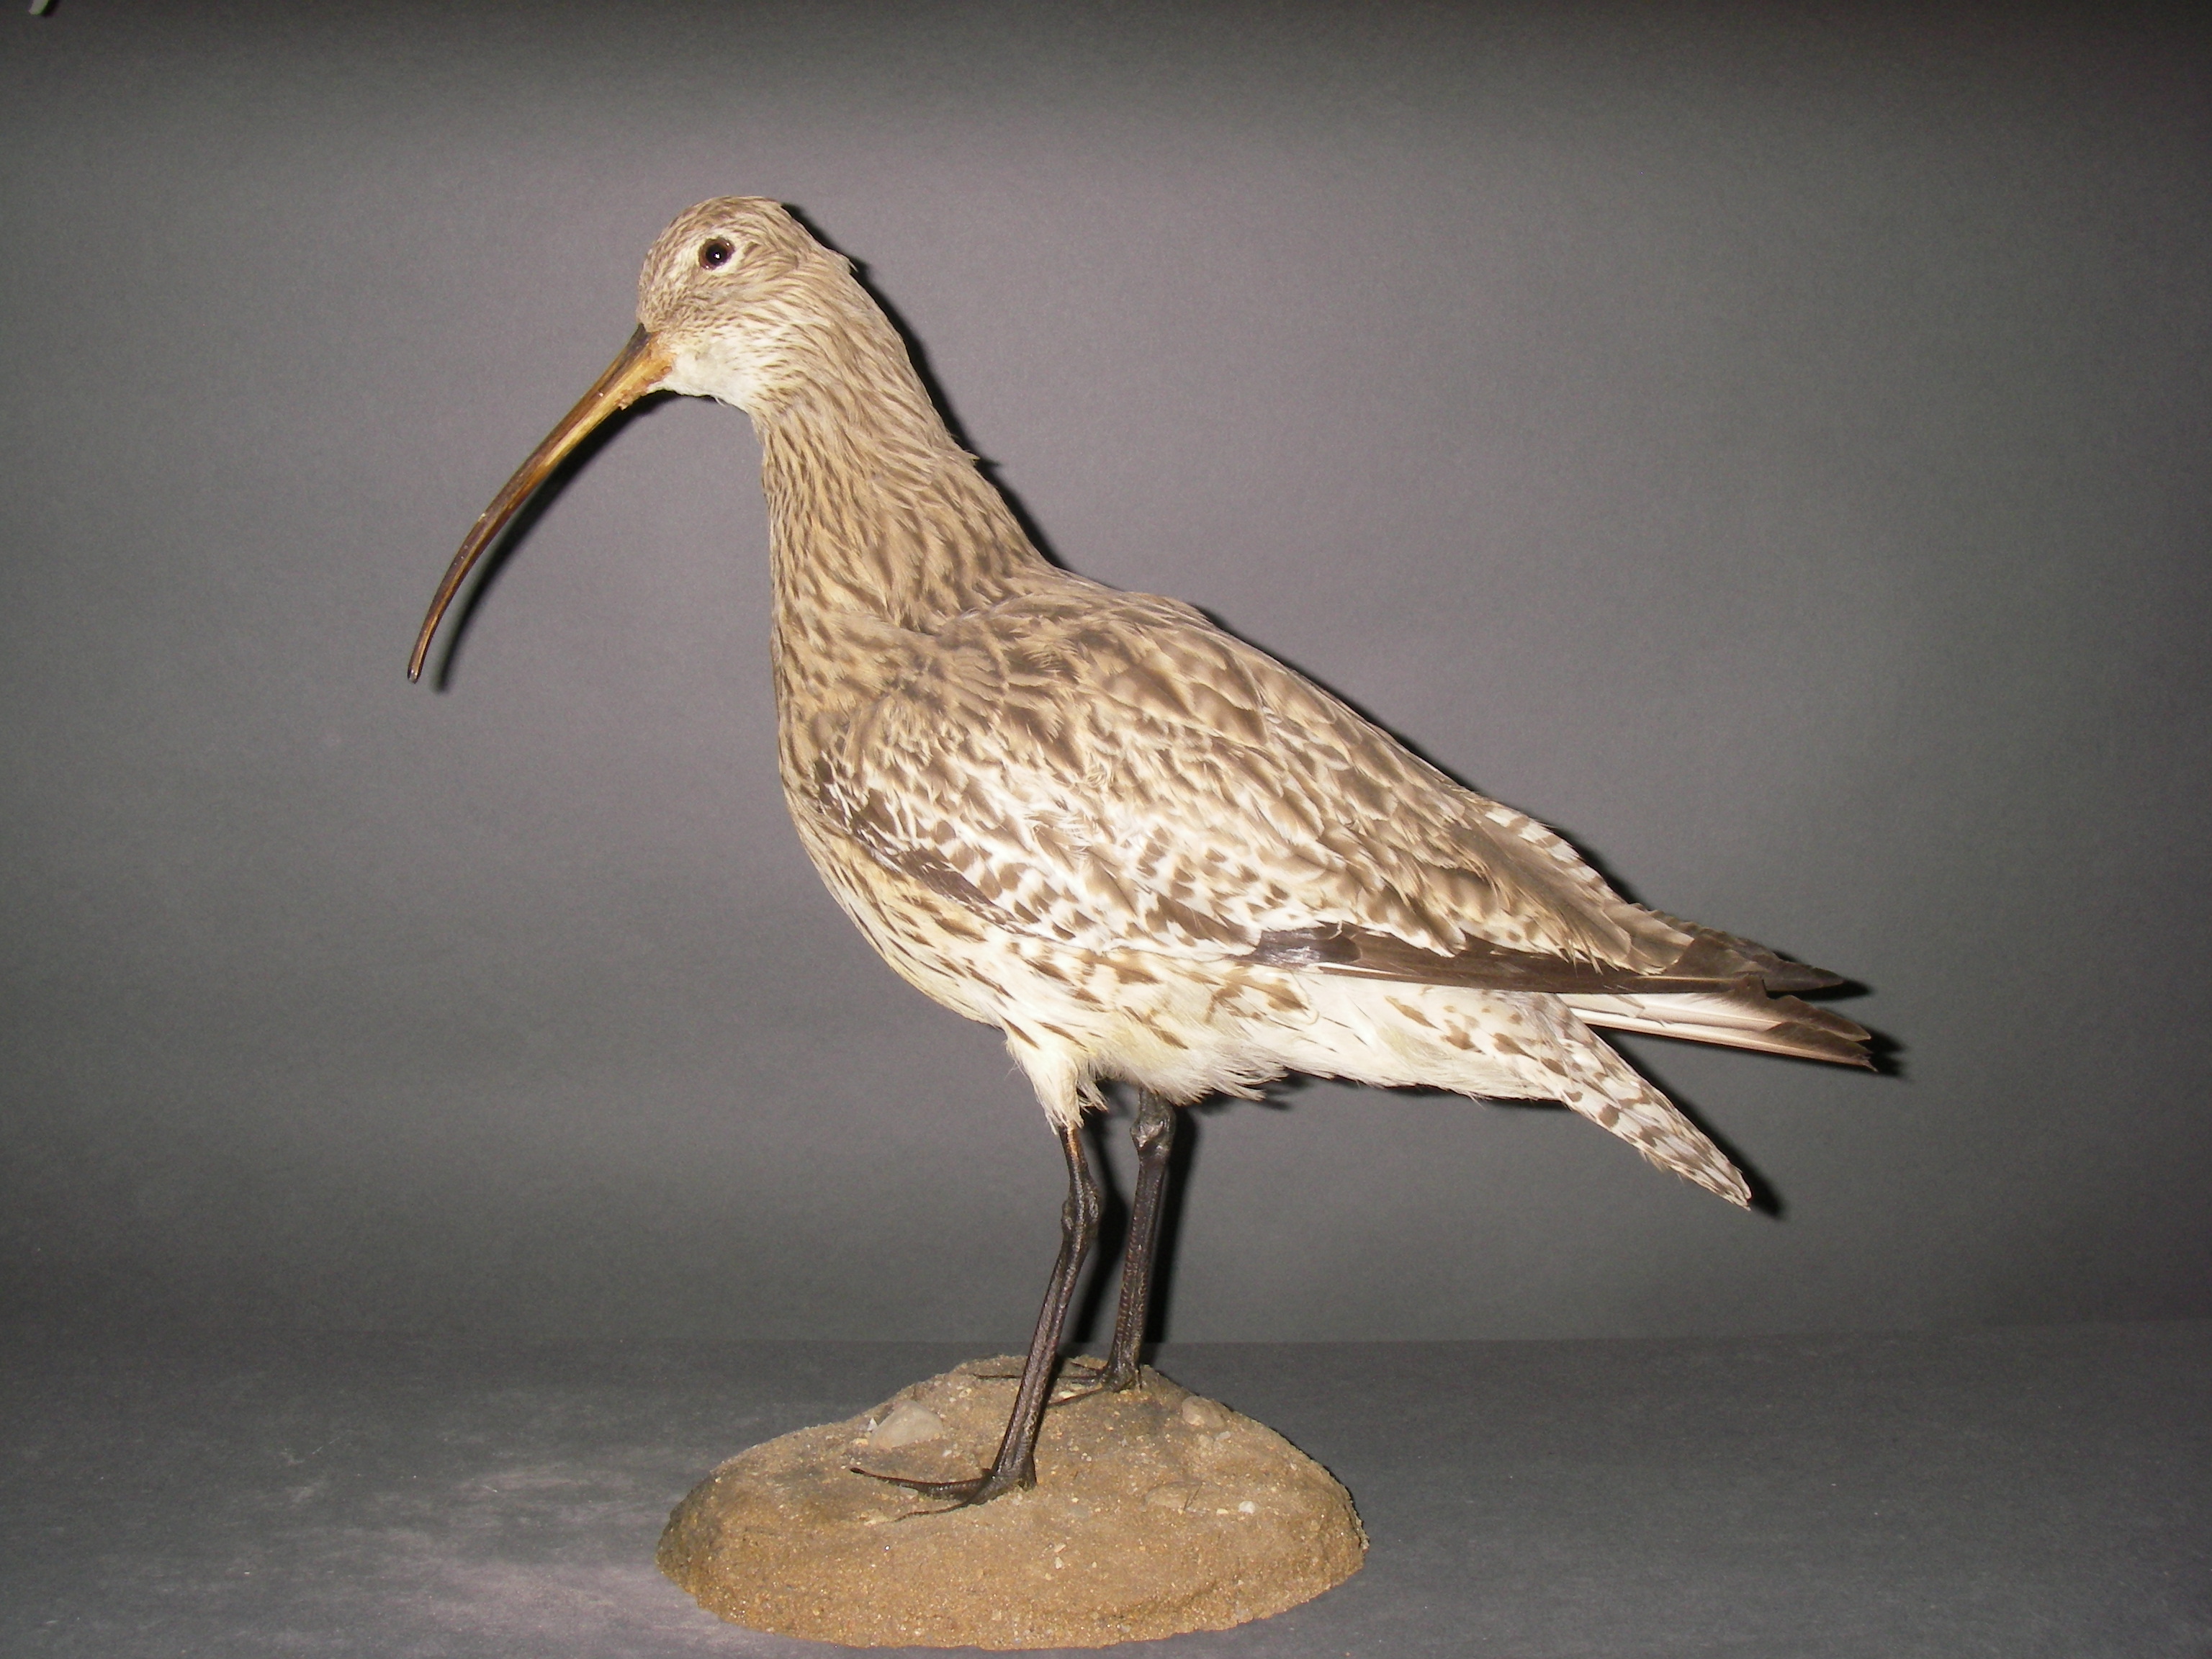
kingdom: Animalia
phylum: Chordata
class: Aves
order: Charadriiformes
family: Scolopacidae
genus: Numenius
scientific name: Numenius arquata
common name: Eurasian curlew
